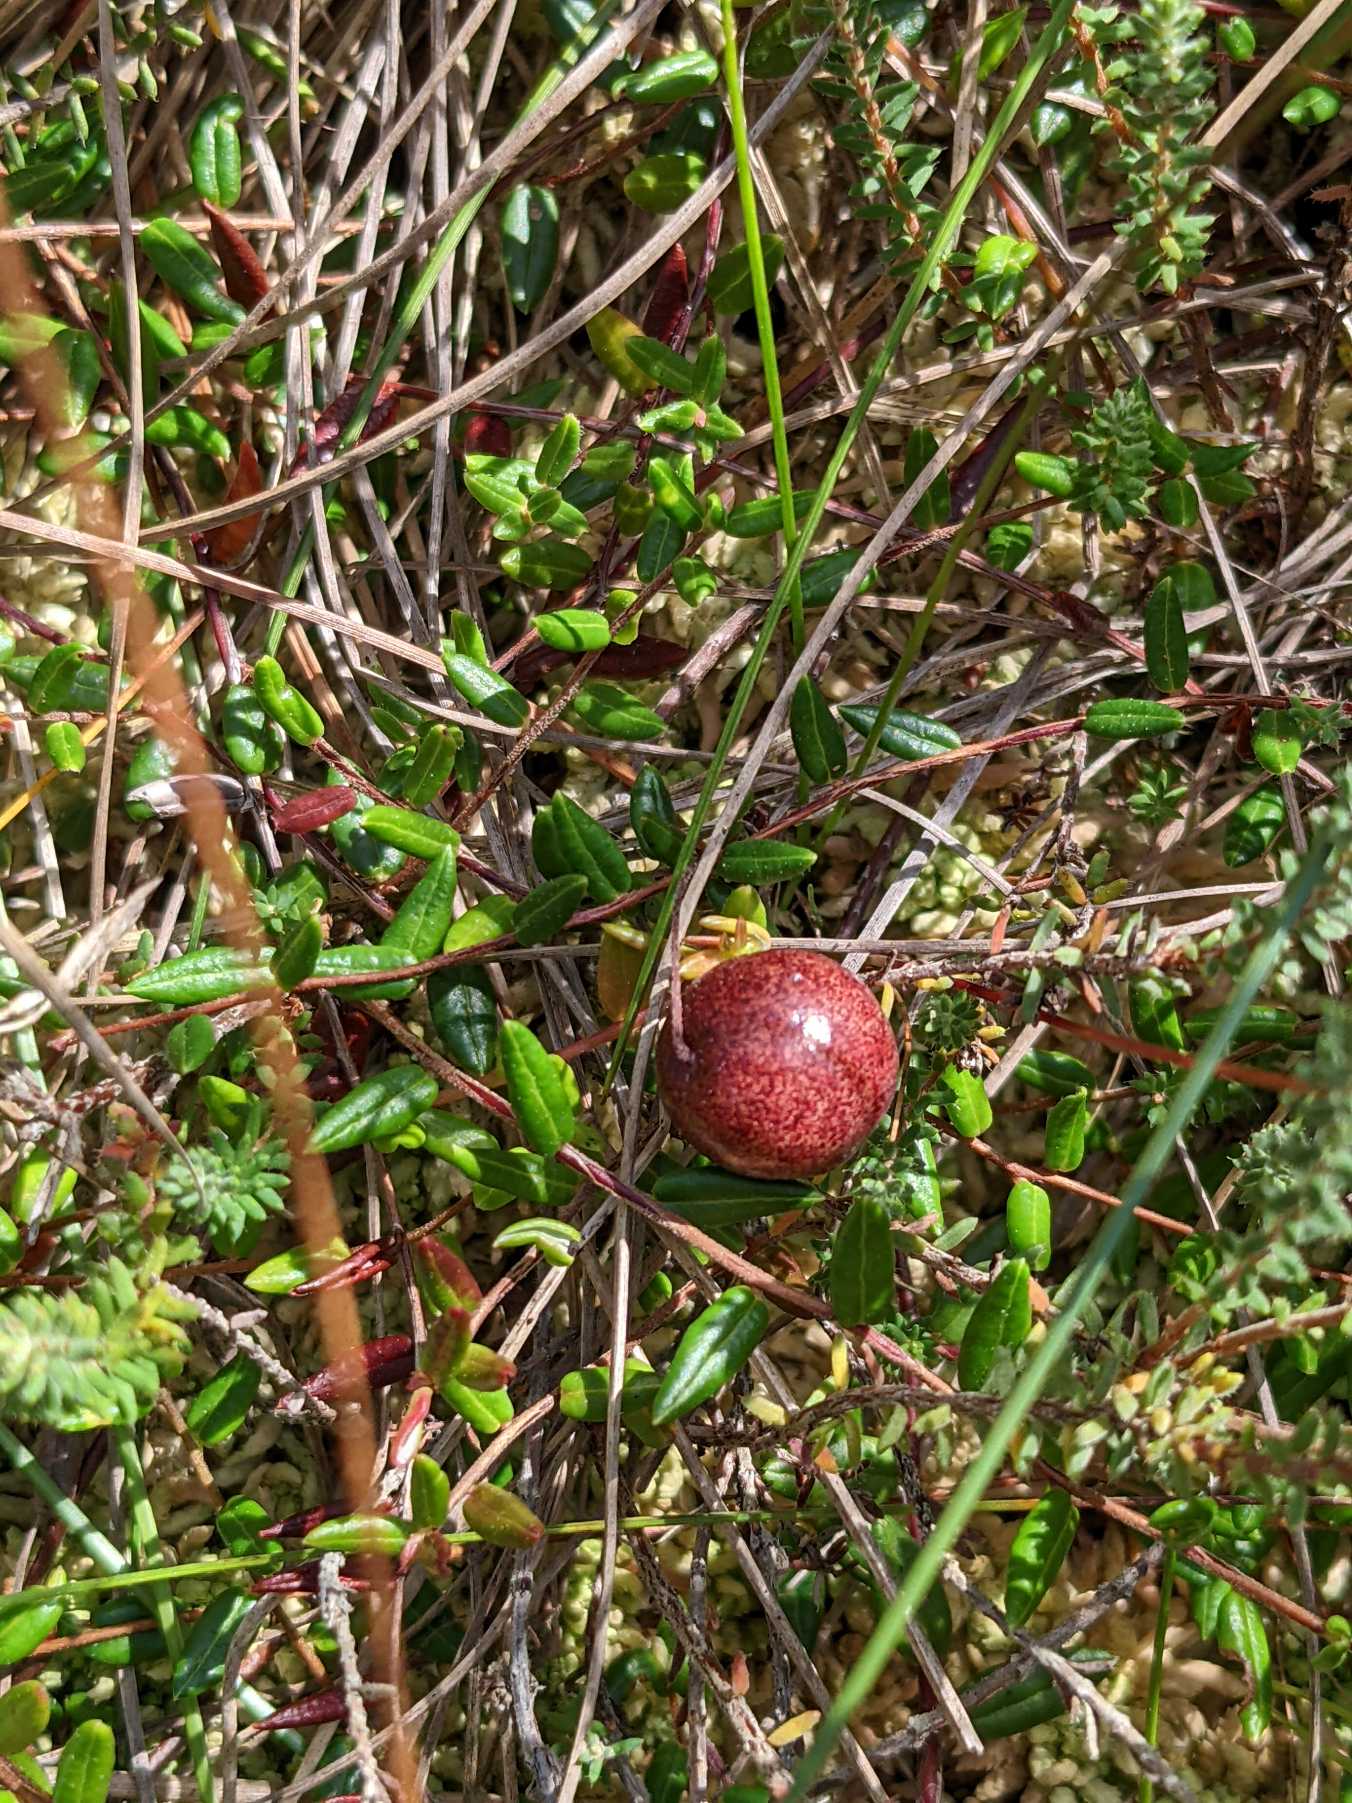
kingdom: Plantae
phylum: Tracheophyta
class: Magnoliopsida
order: Ericales
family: Ericaceae
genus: Vaccinium
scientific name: Vaccinium oxycoccos
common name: Tranebær
